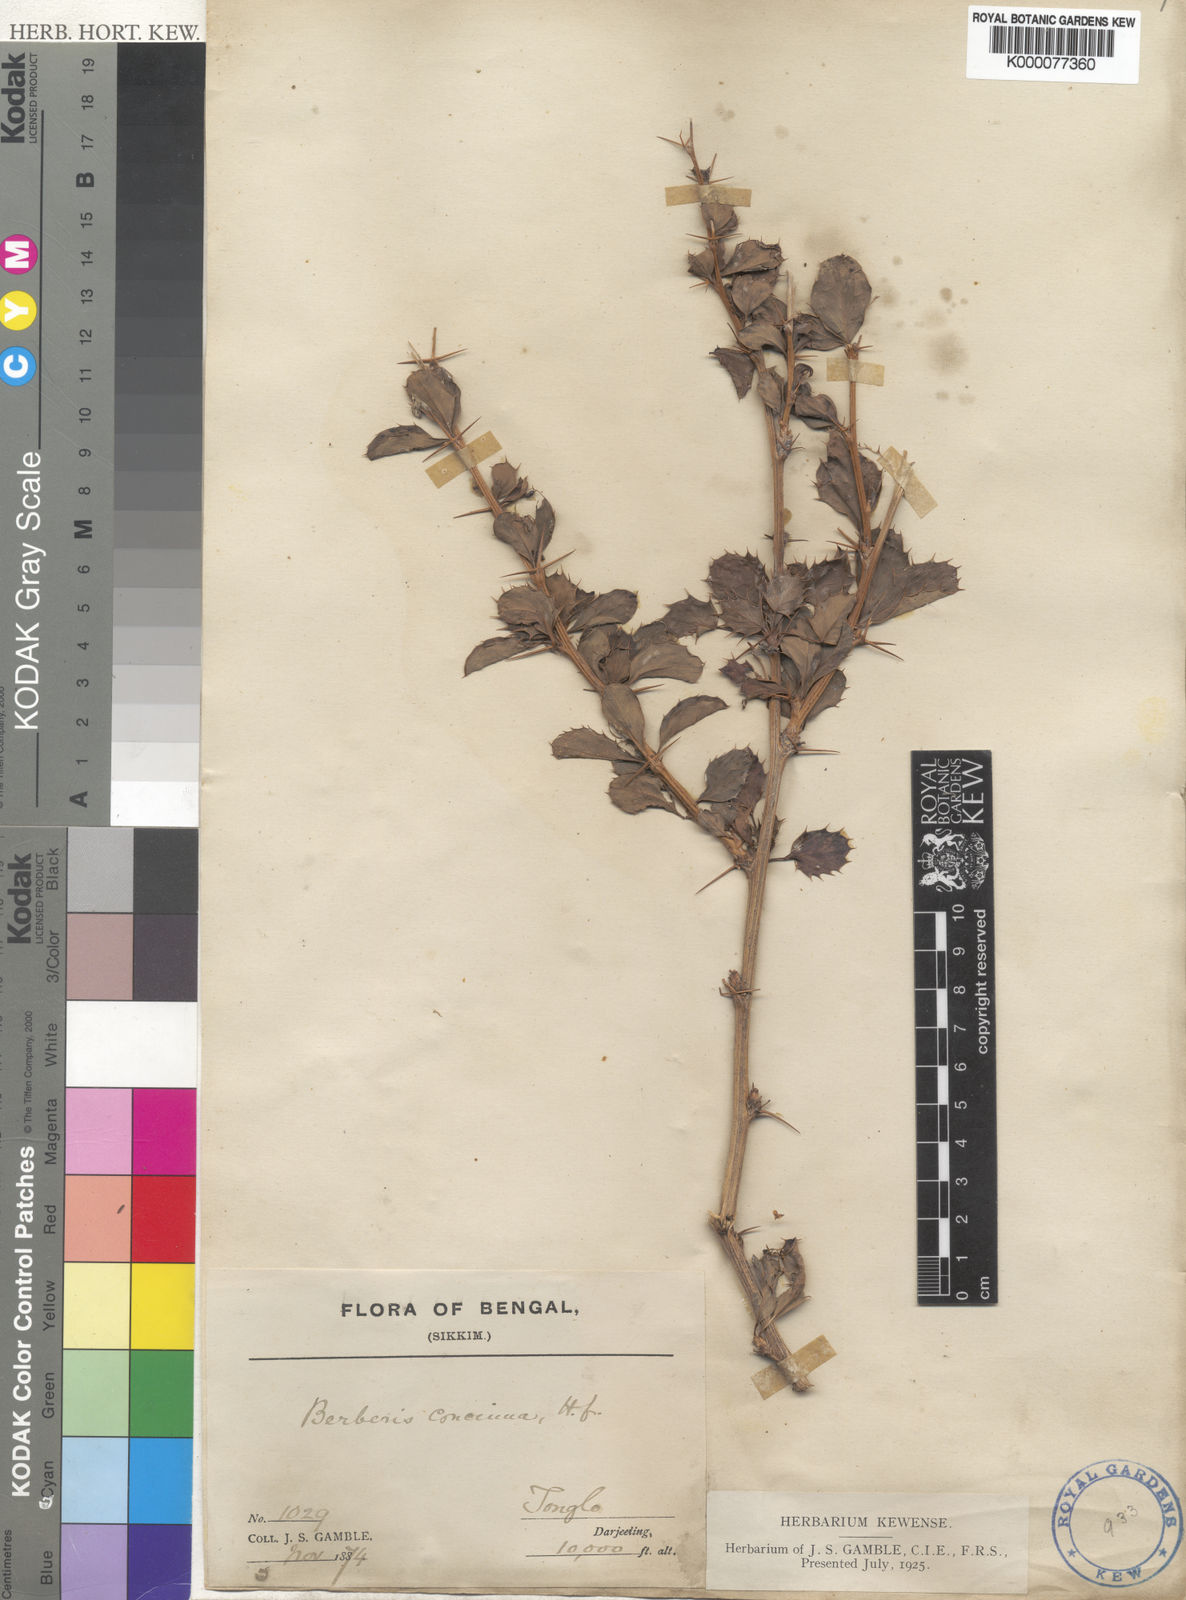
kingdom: Plantae
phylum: Tracheophyta
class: Magnoliopsida
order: Ranunculales
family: Berberidaceae
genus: Berberis
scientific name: Berberis concinna
